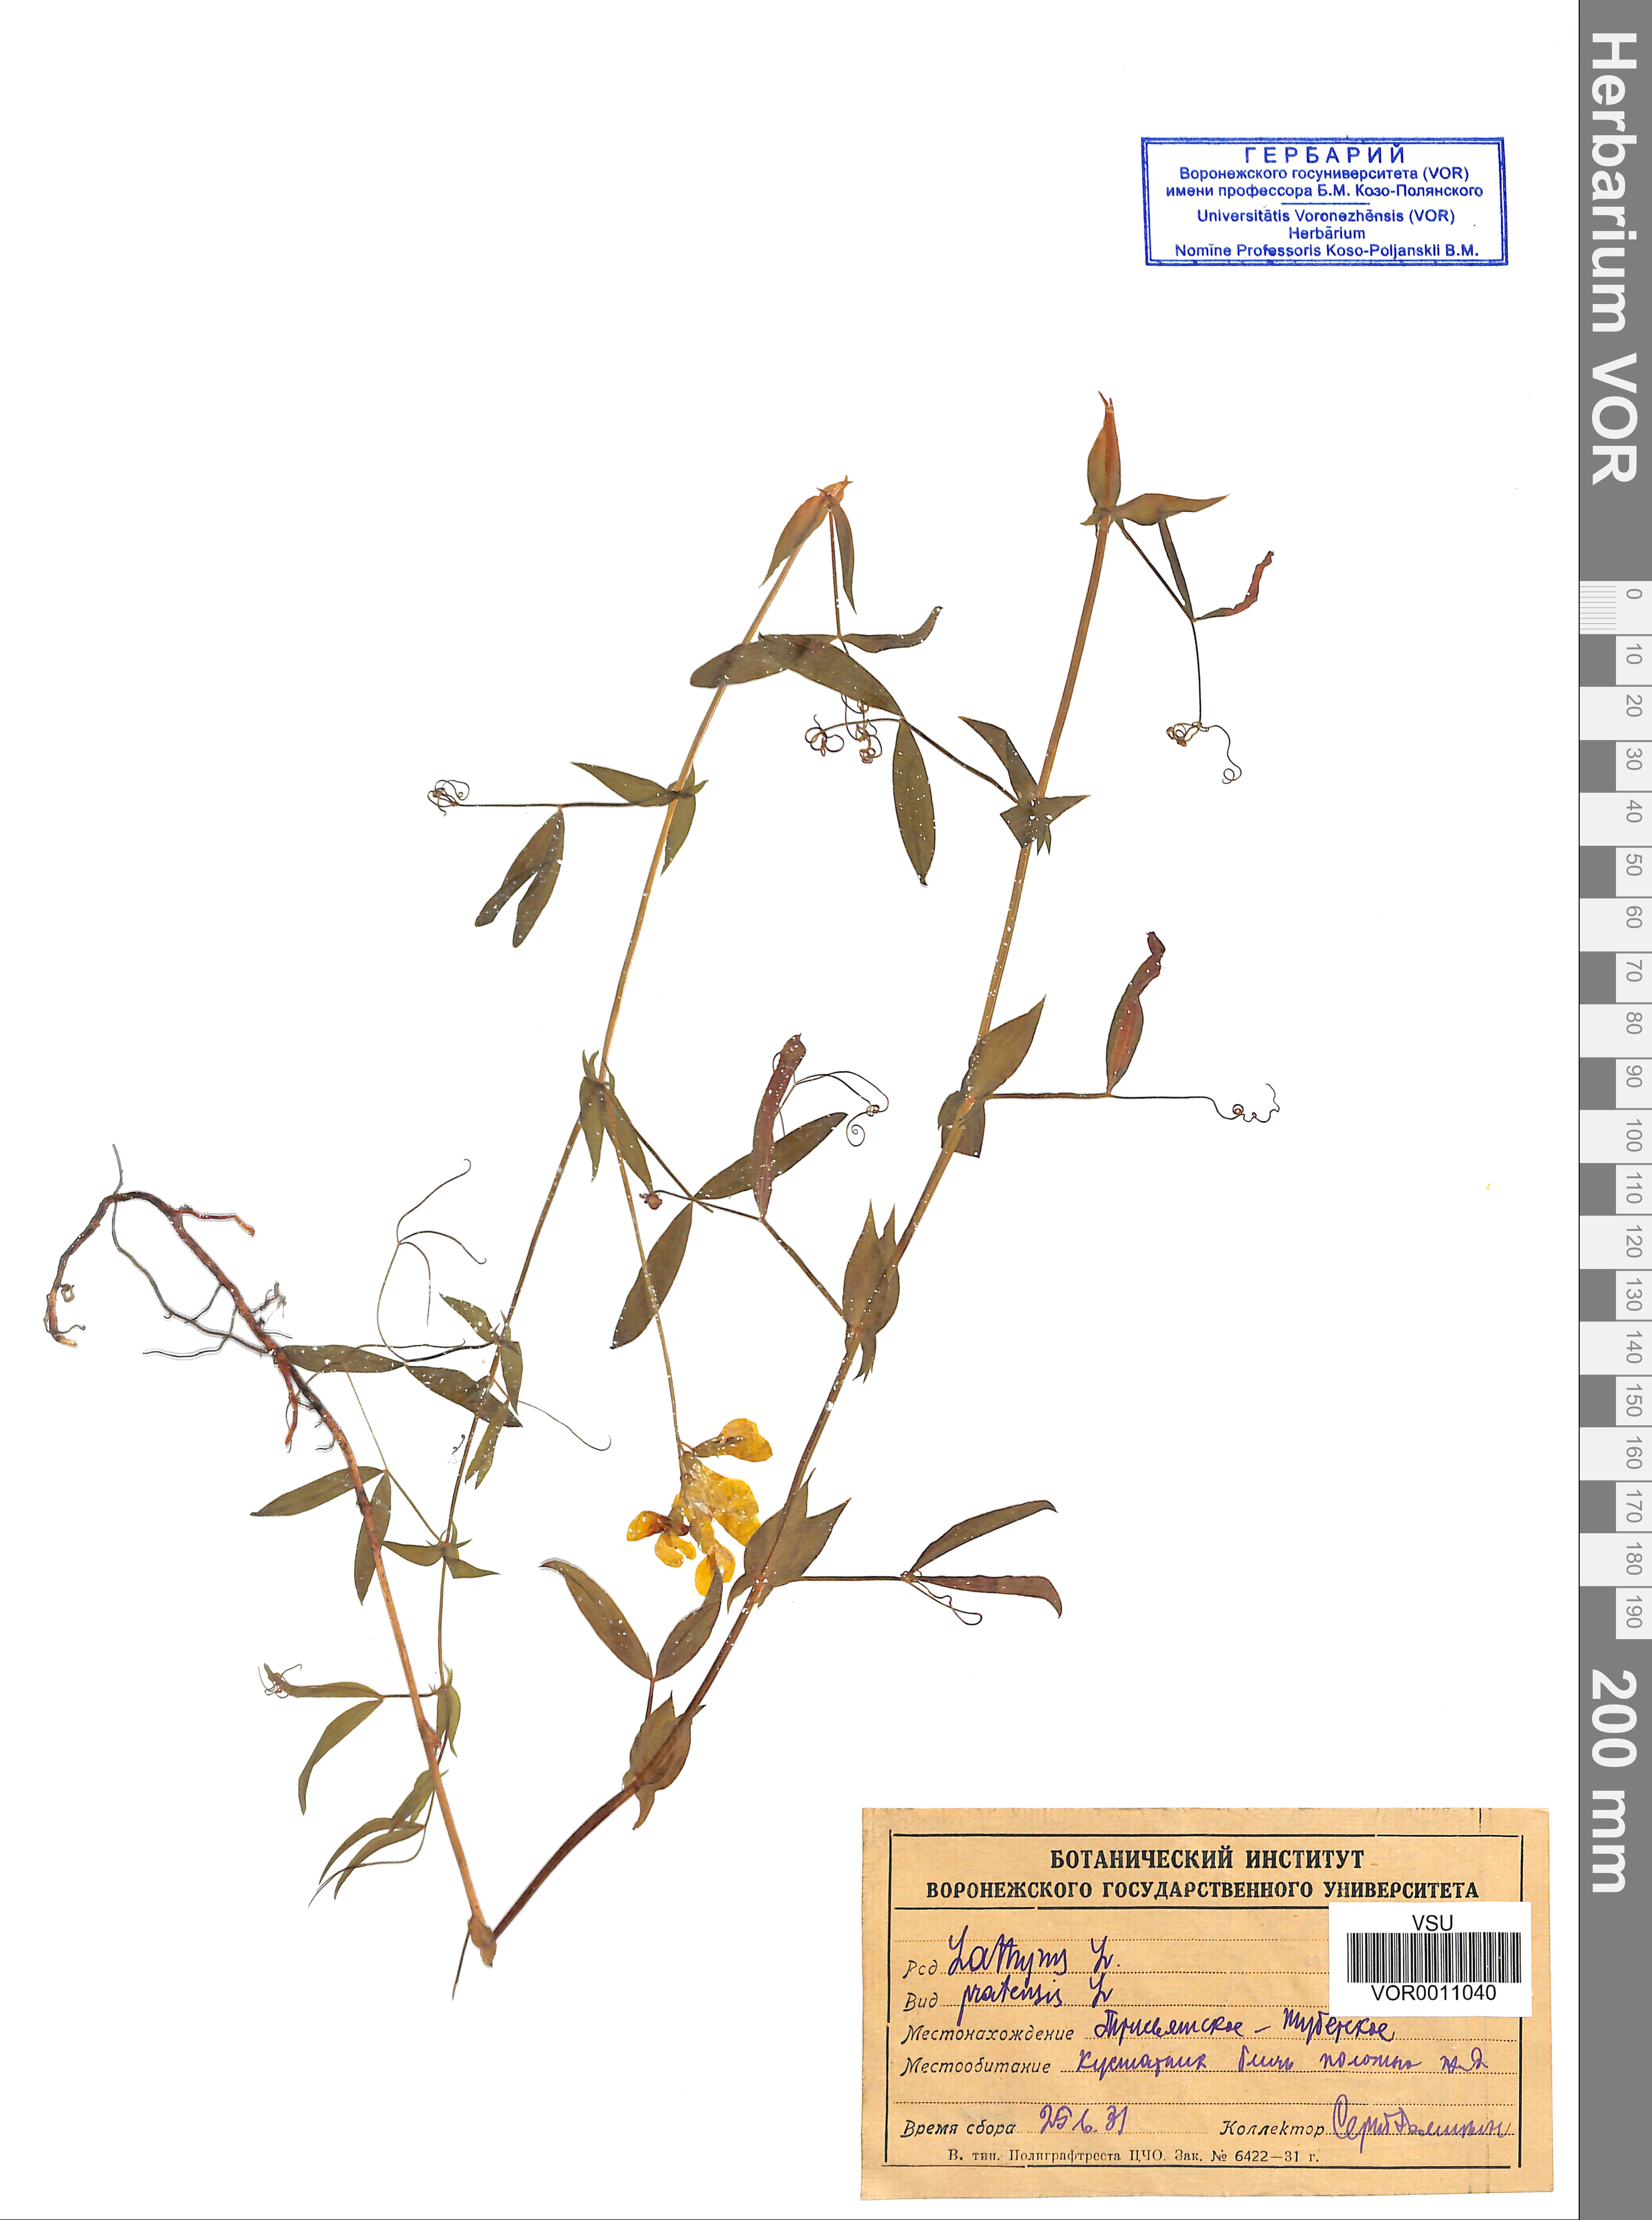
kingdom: Plantae
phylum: Tracheophyta
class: Magnoliopsida
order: Fabales
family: Fabaceae
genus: Lathyrus
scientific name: Lathyrus pratensis
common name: Meadow vetchling
